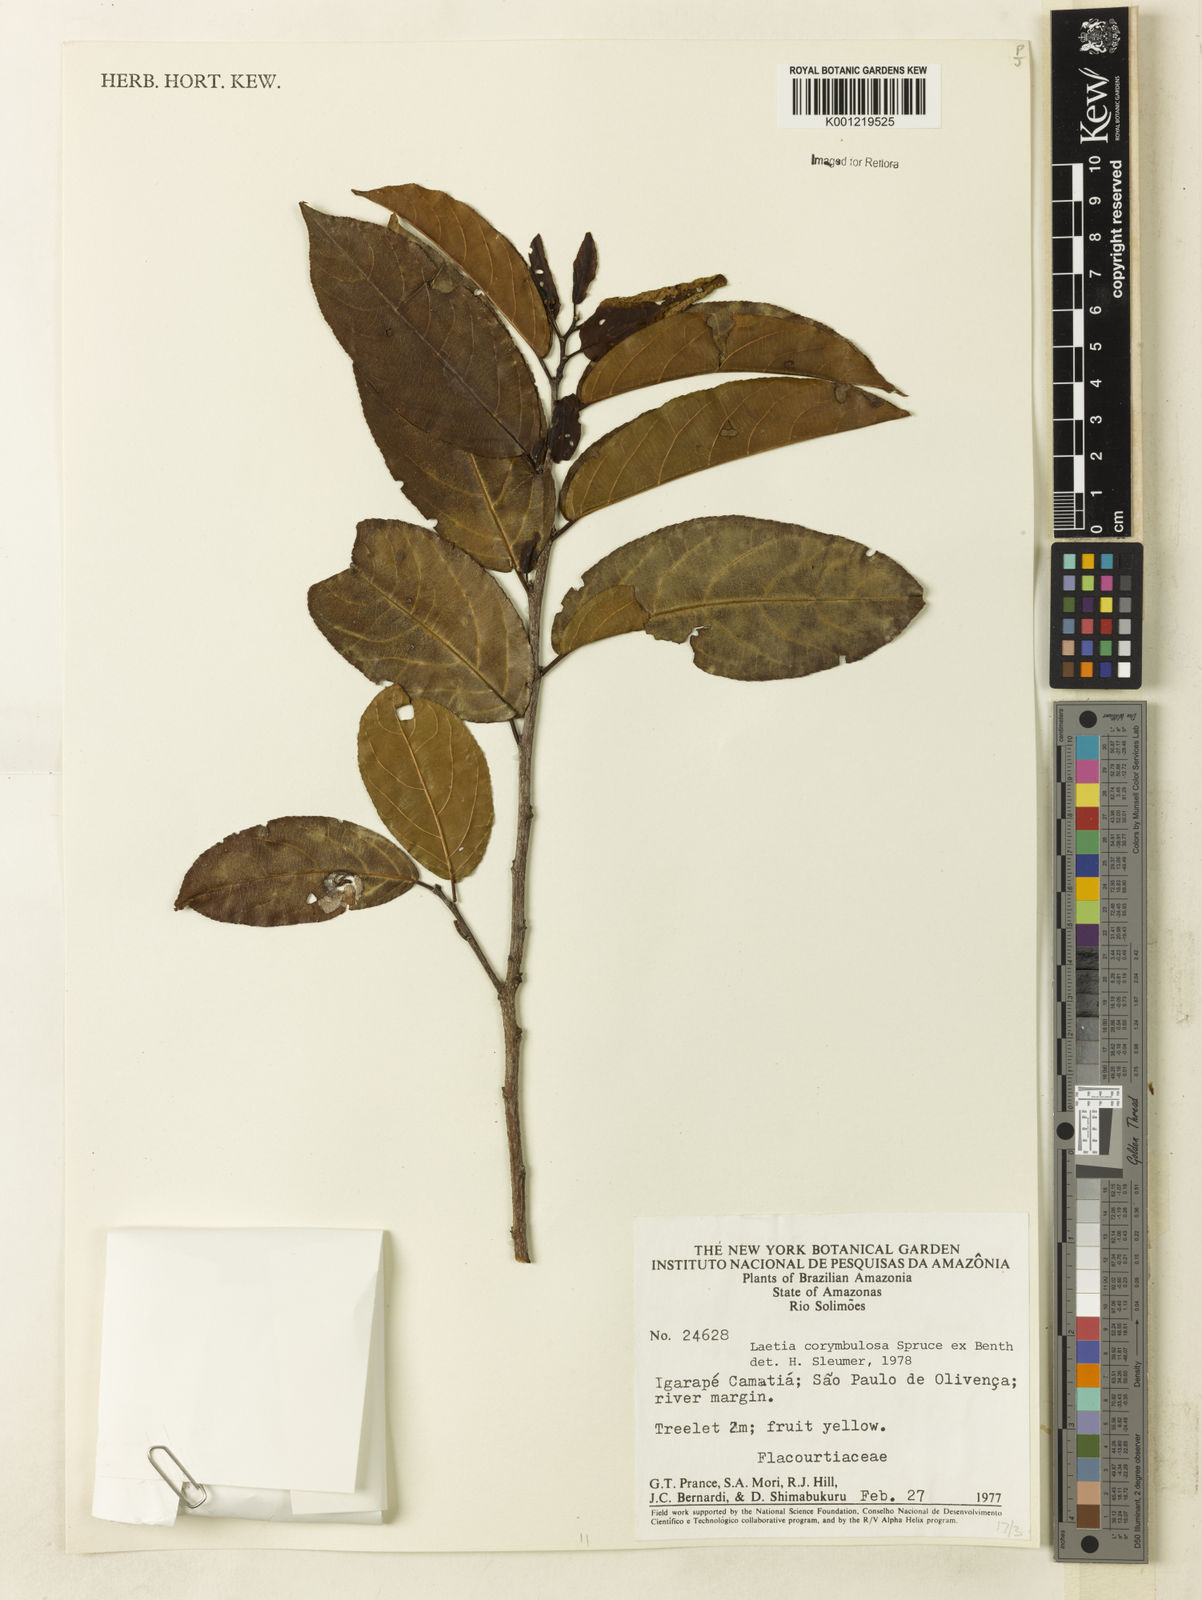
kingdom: Plantae
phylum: Tracheophyta
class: Magnoliopsida
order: Malpighiales
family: Salicaceae
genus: Casearia
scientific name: Casearia corymbulosa
